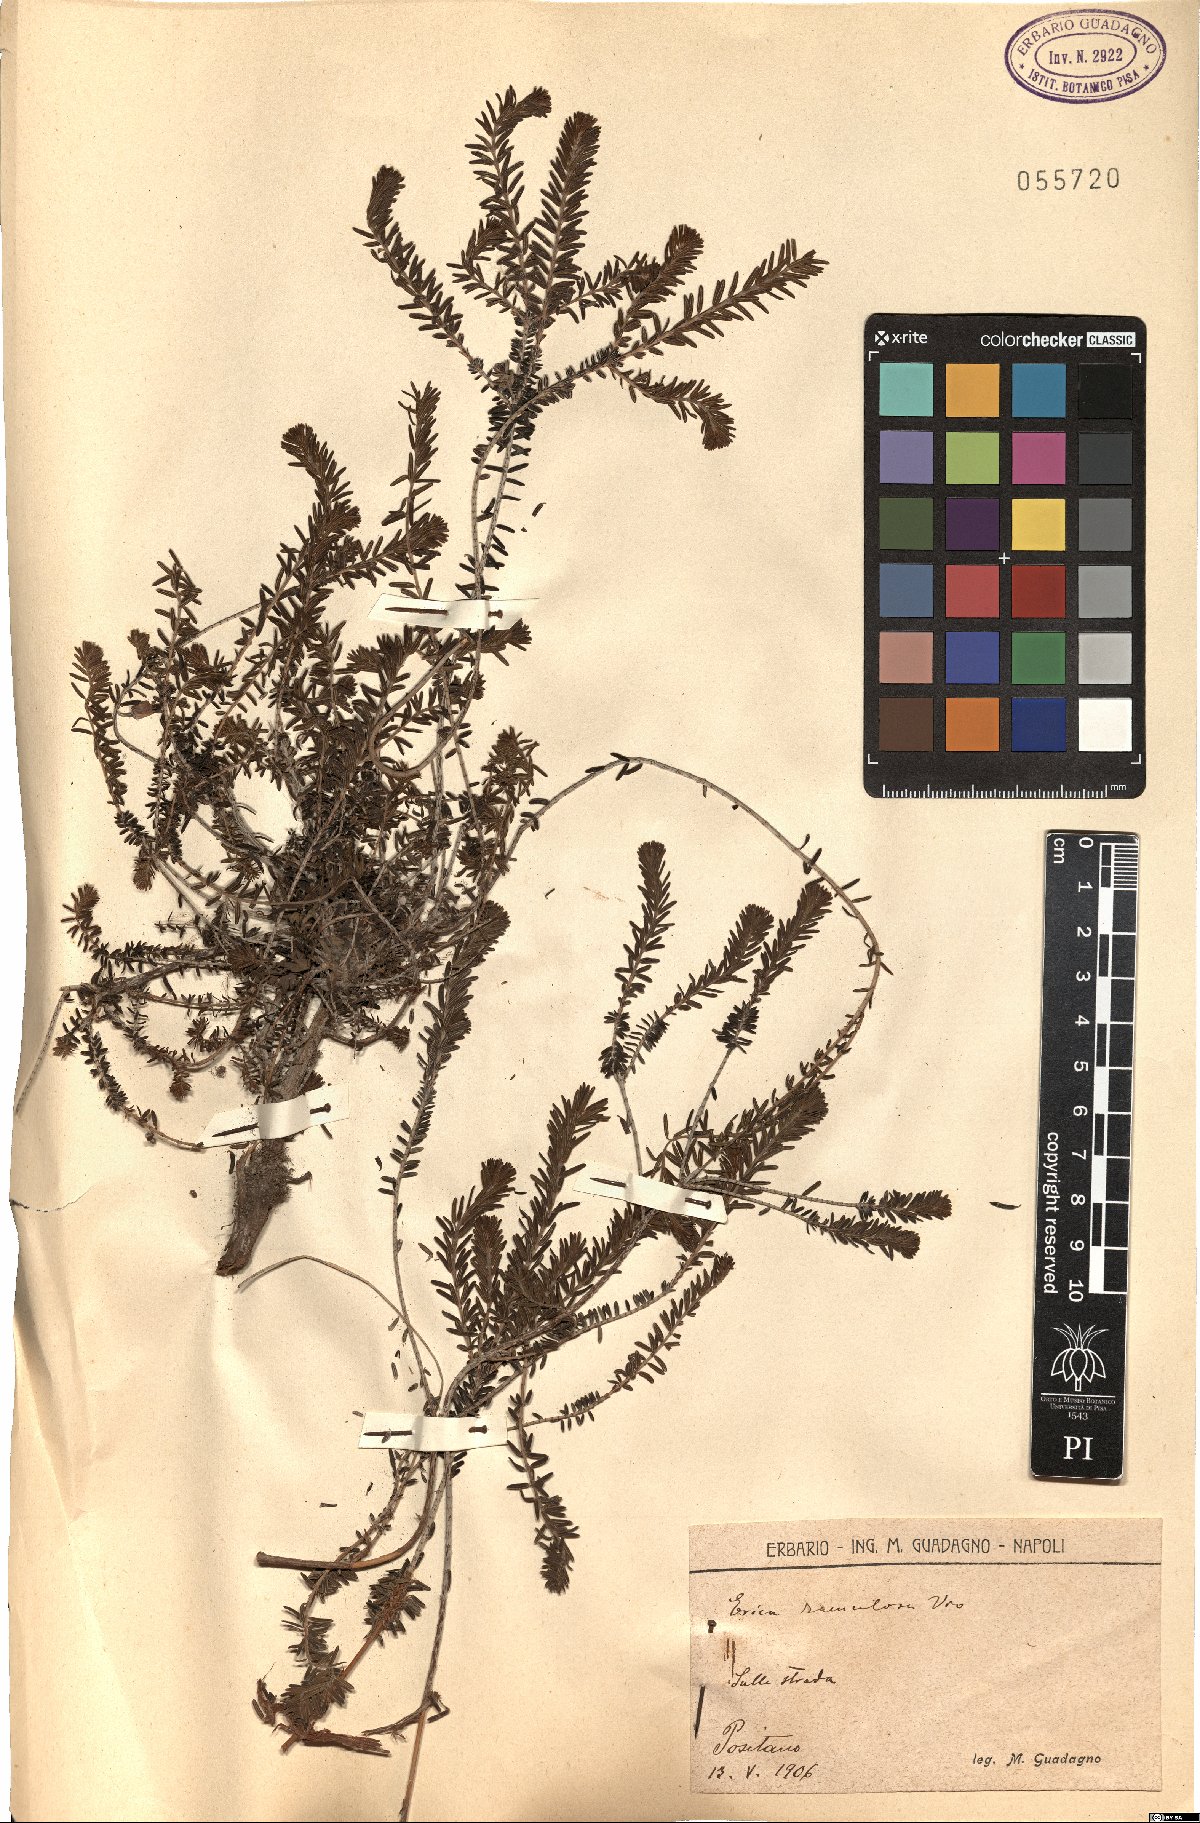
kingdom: Plantae
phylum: Tracheophyta
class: Magnoliopsida
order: Ericales
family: Ericaceae
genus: Erica
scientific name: Erica imbricata
